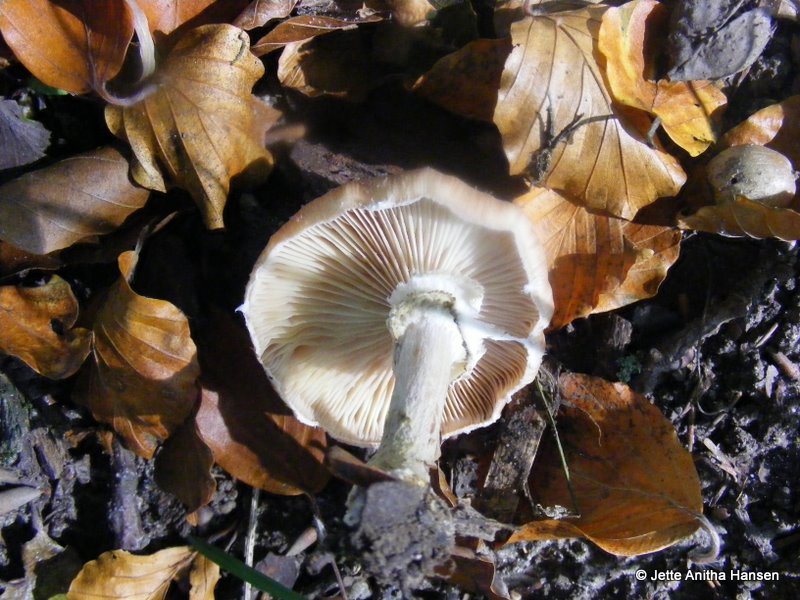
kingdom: Fungi
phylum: Basidiomycota
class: Agaricomycetes
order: Agaricales
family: Physalacriaceae
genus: Armillaria
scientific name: Armillaria lutea
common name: køllestokket honningsvamp
